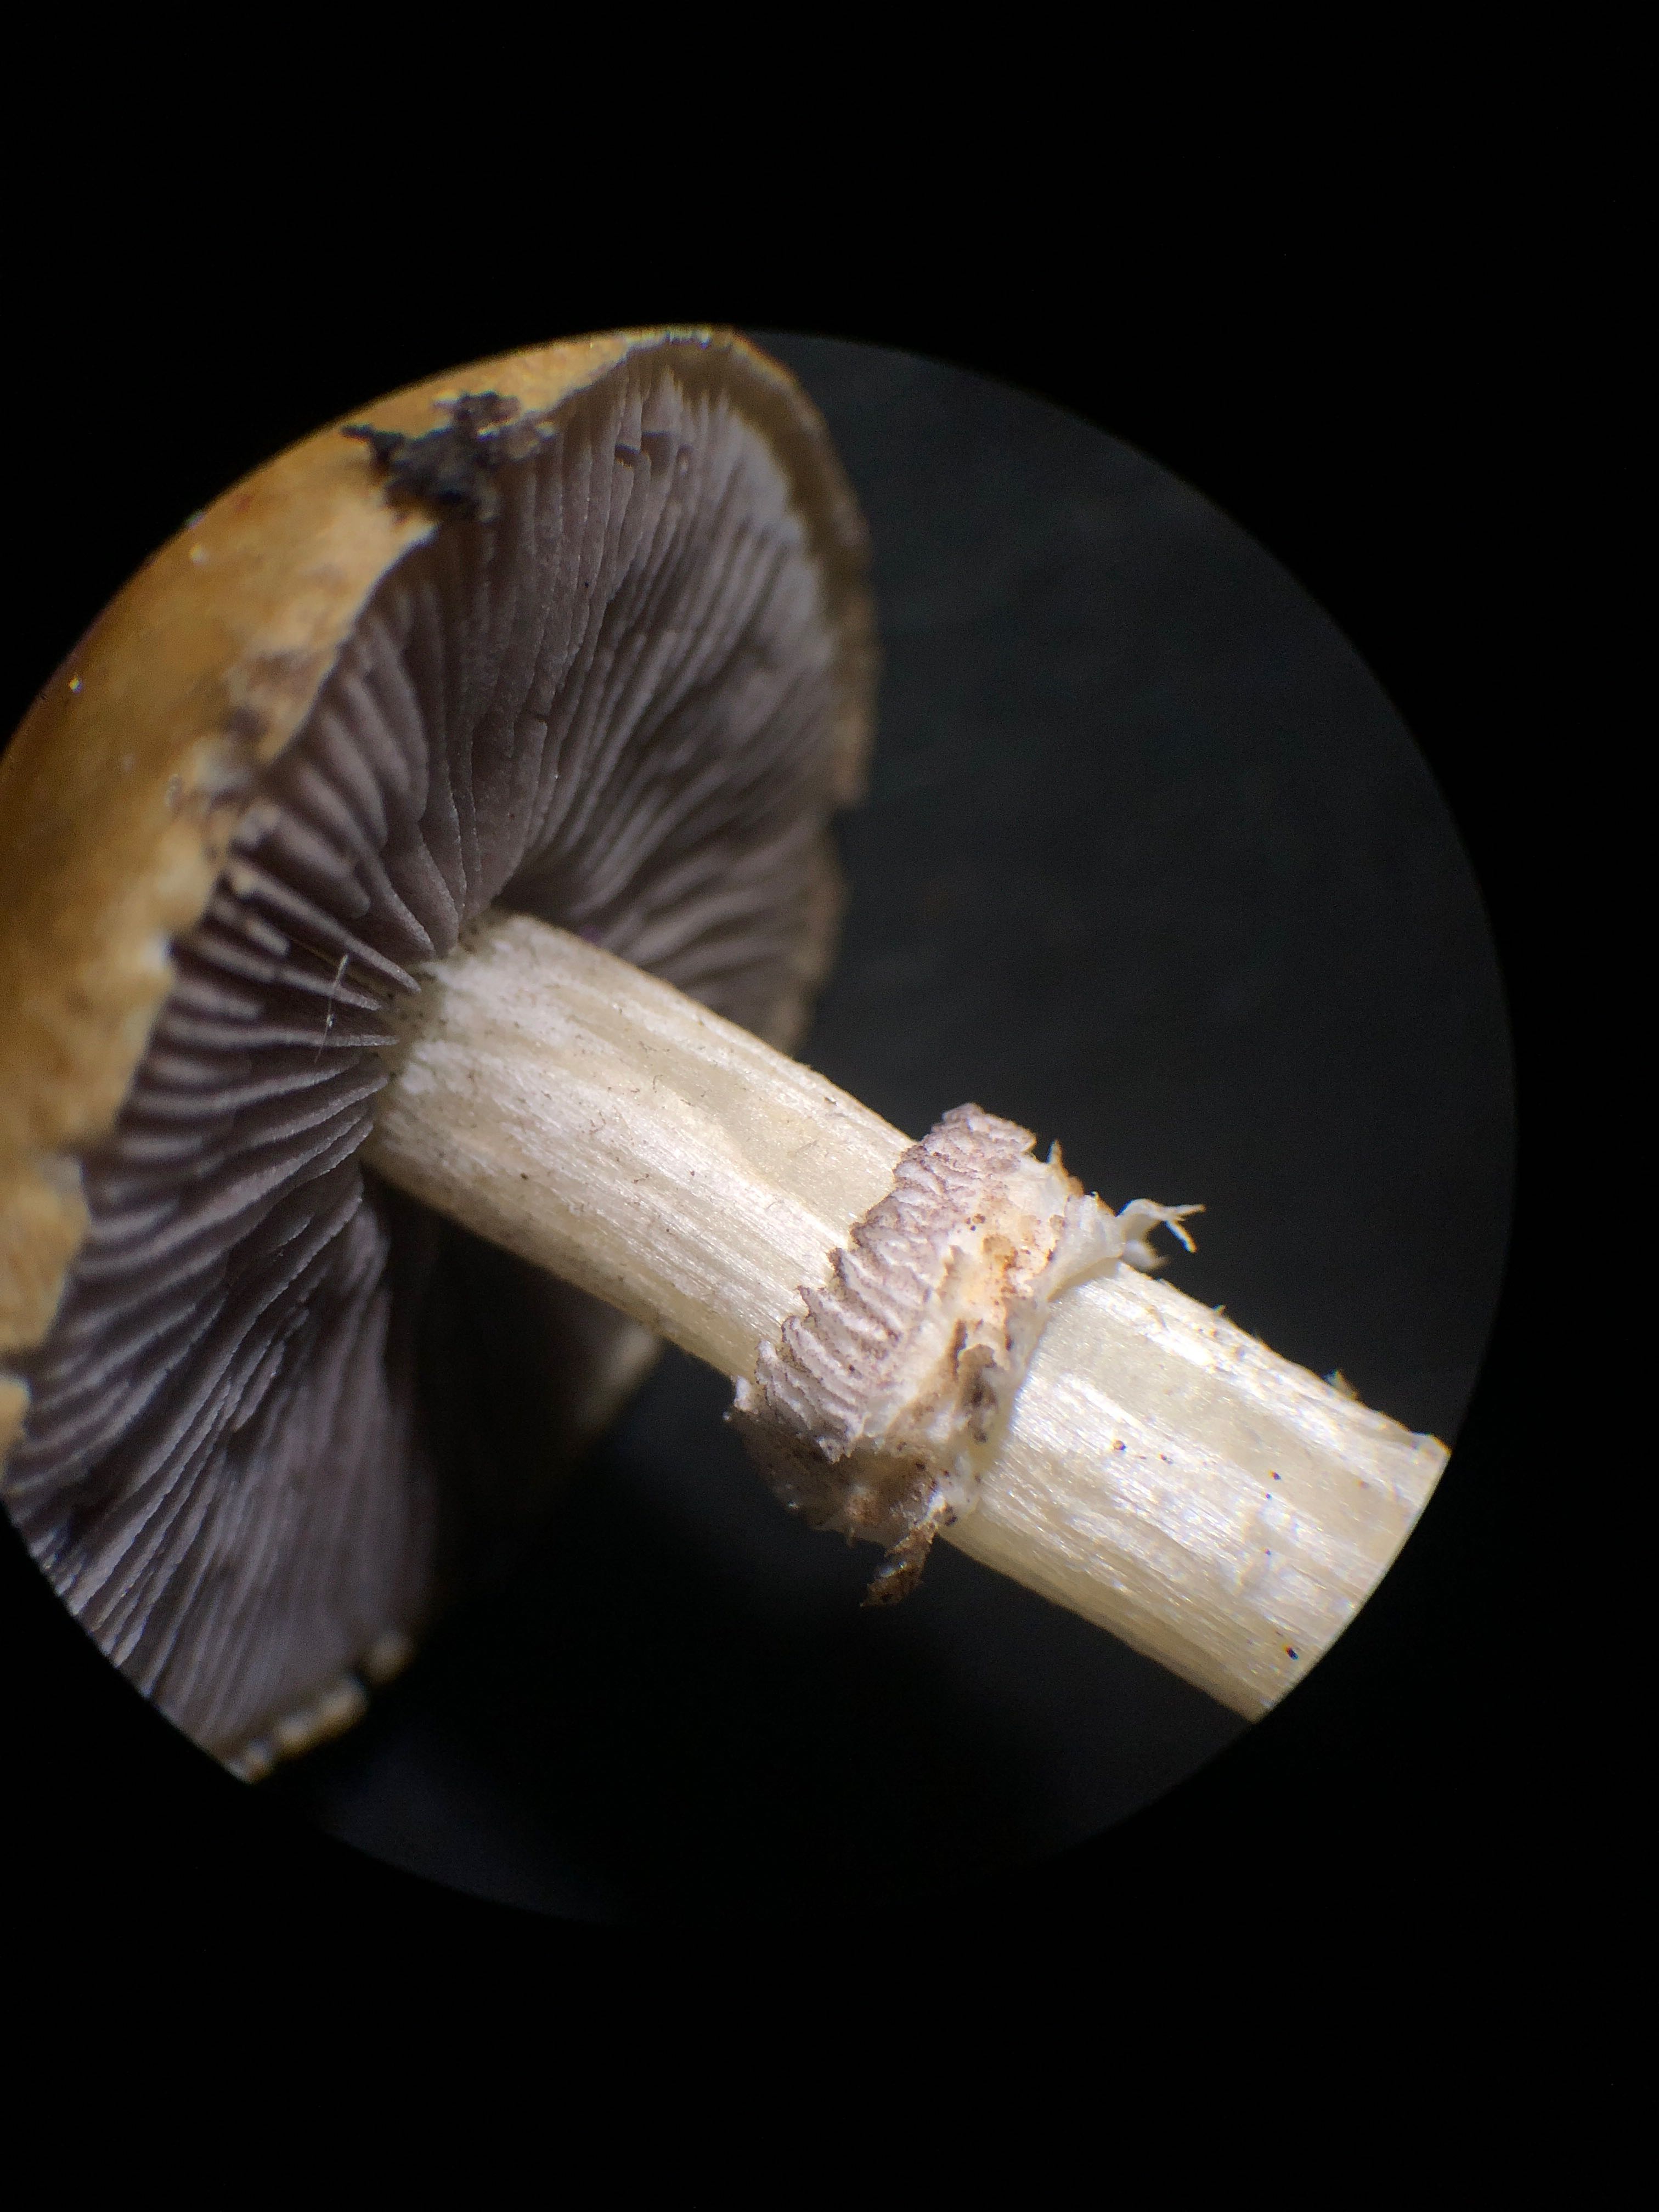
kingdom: Fungi
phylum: Basidiomycota
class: Agaricomycetes
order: Agaricales
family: Hymenogastraceae
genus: Psilocybe
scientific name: Psilocybe coronilla
